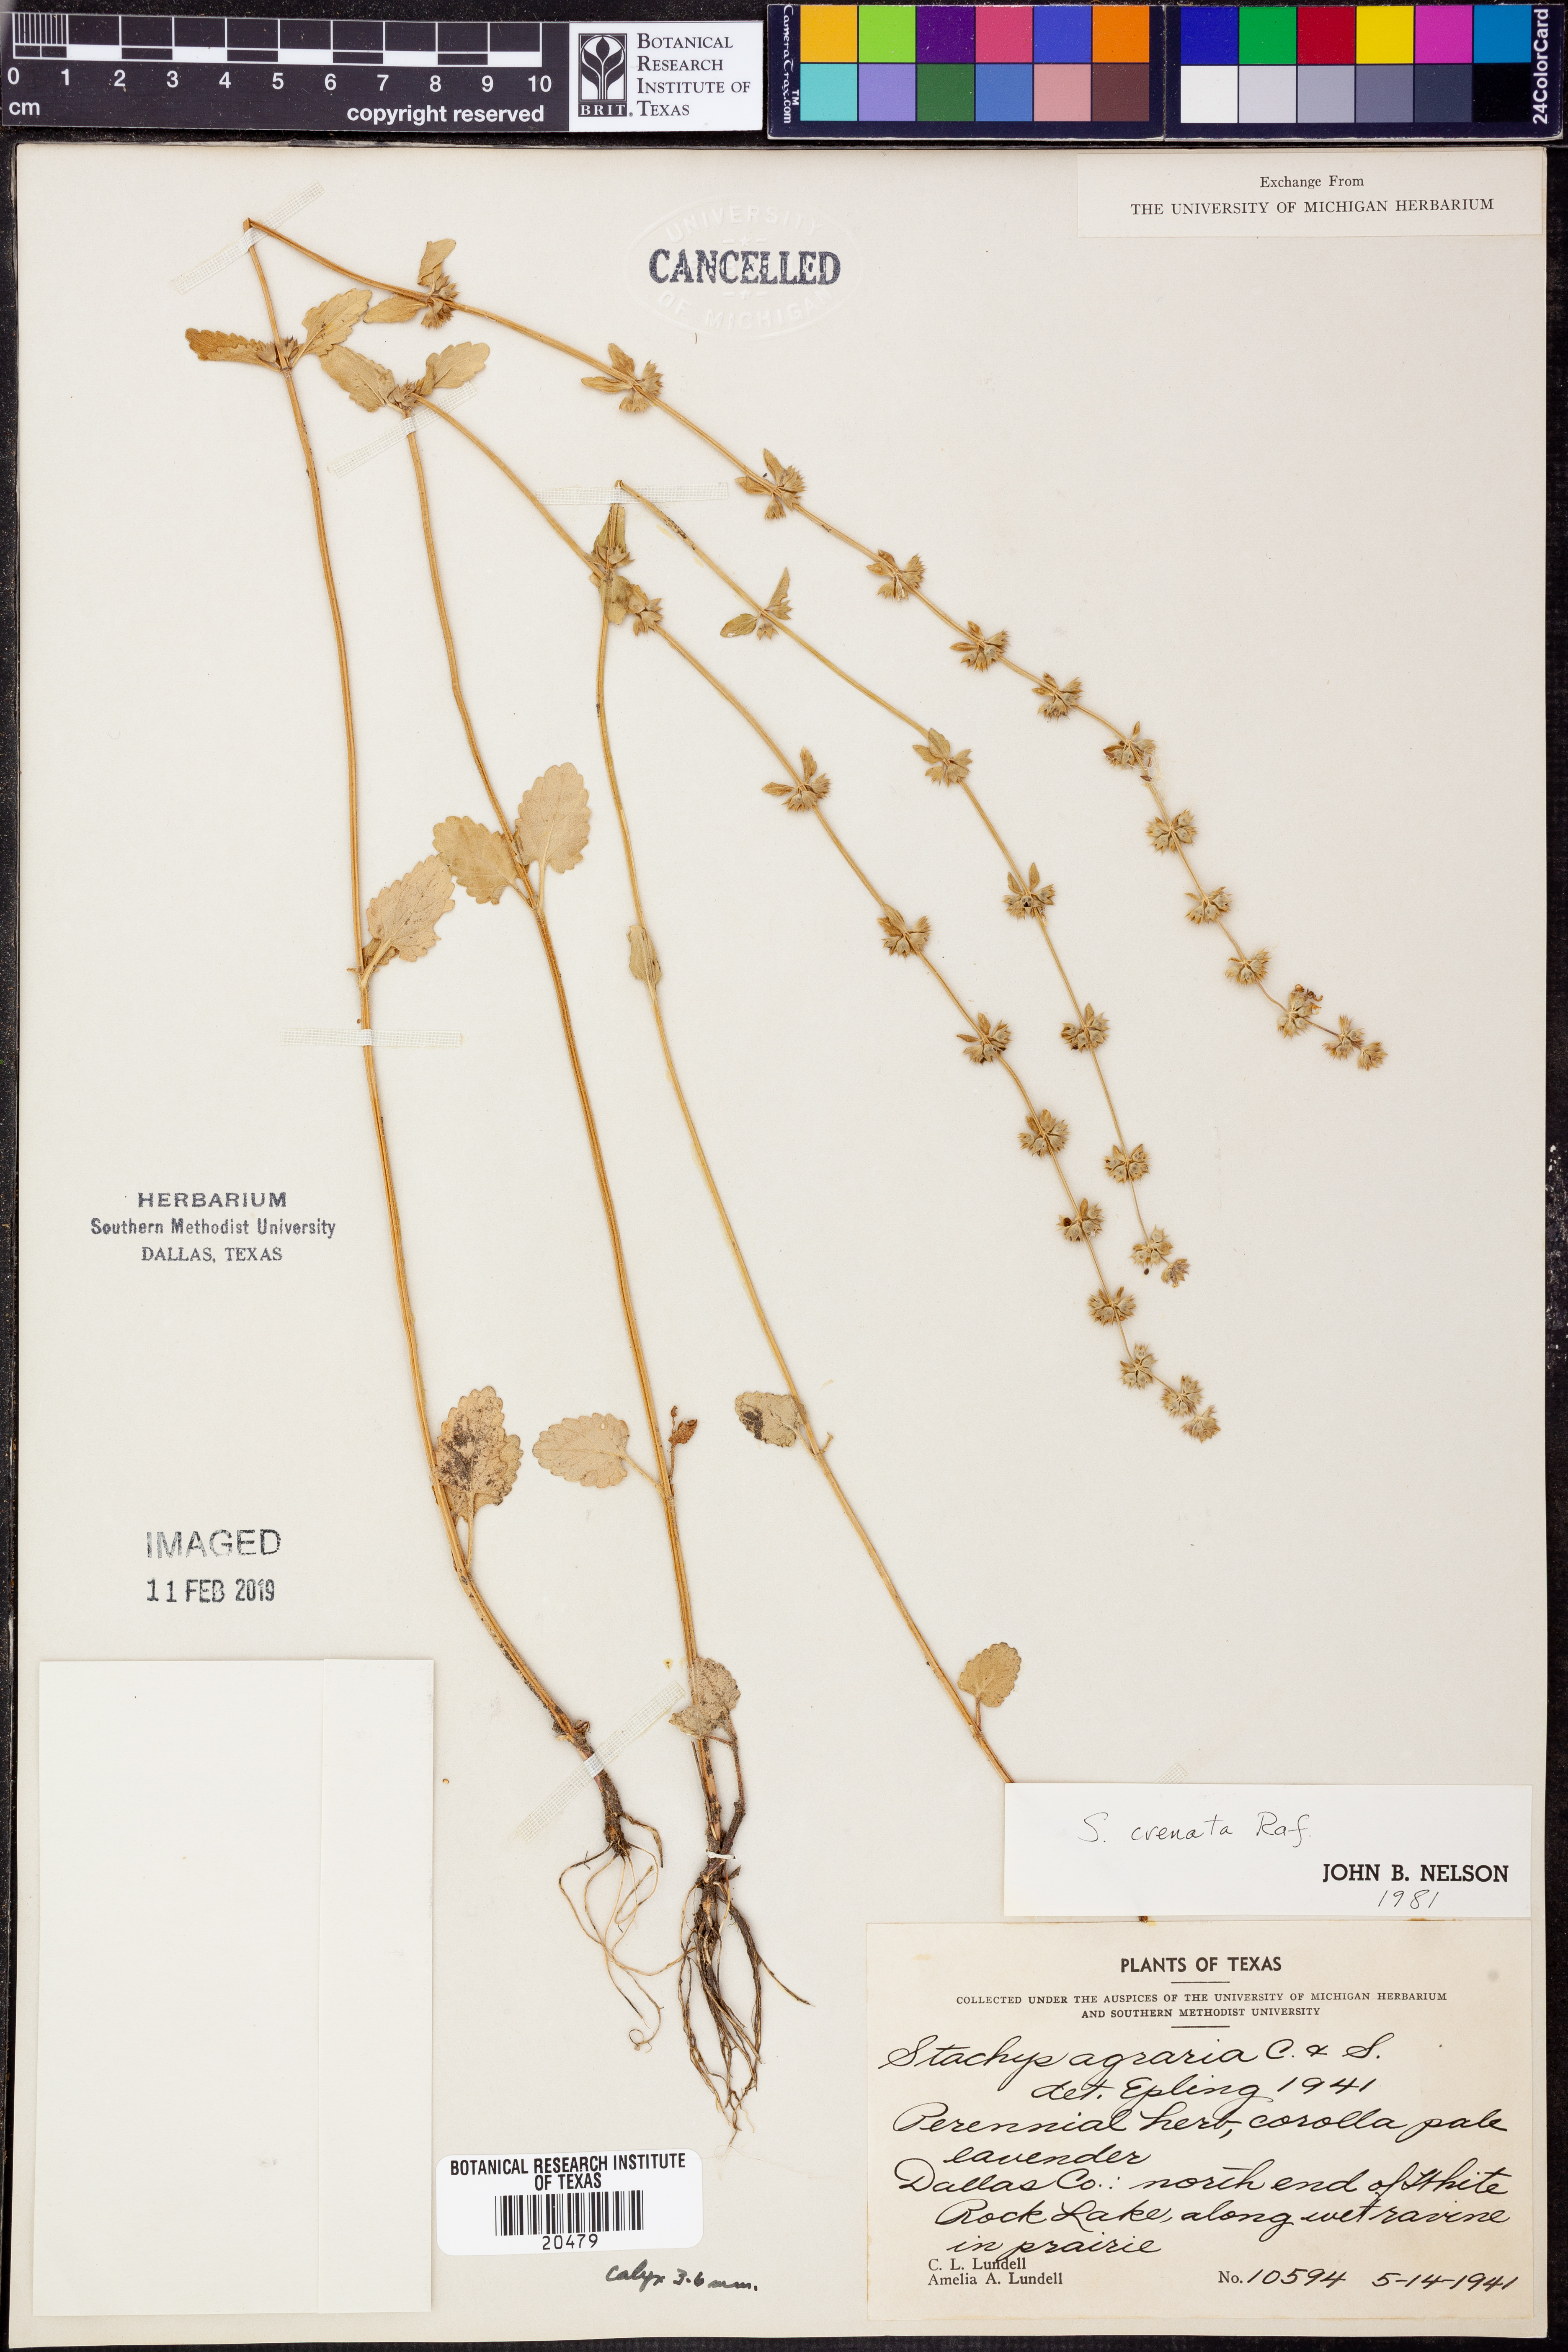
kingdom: Plantae
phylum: Tracheophyta
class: Magnoliopsida
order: Lamiales
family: Lamiaceae
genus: Stachys
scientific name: Stachys agraria
